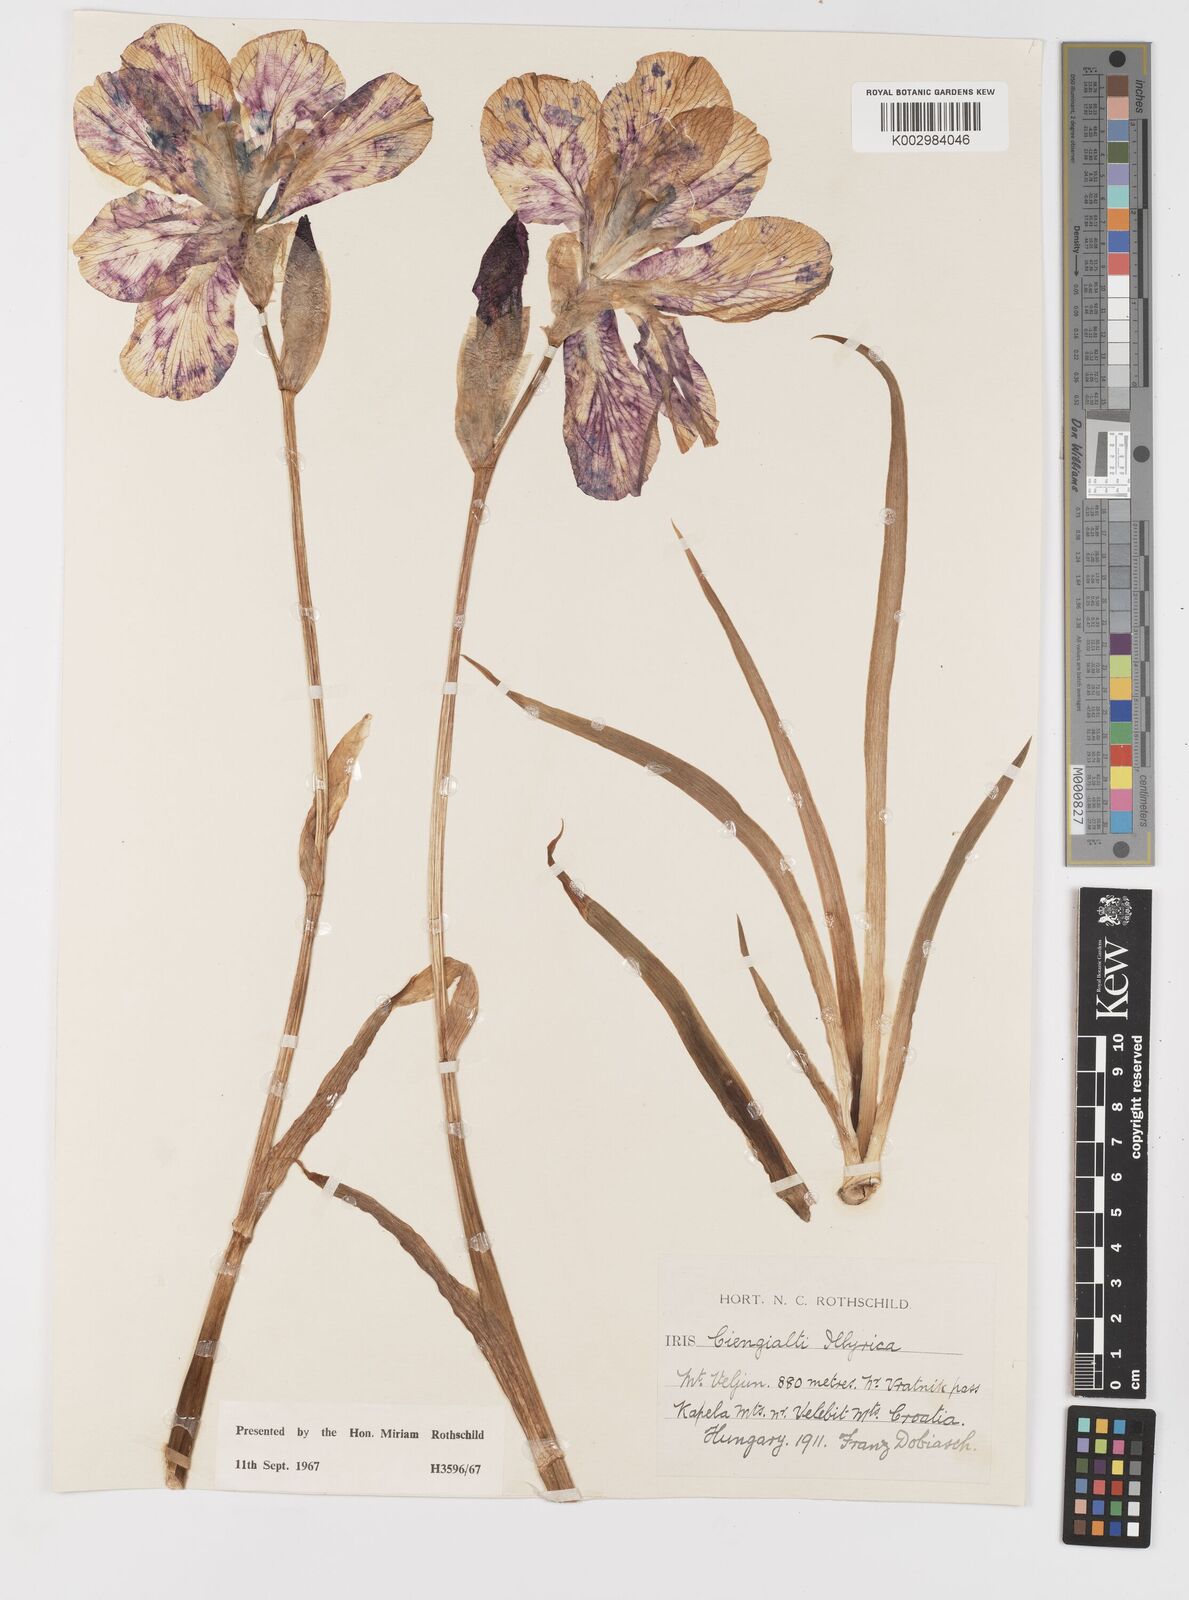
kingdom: Plantae
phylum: Tracheophyta
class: Liliopsida
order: Asparagales
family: Iridaceae
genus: Iris
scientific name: Iris pallida
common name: Sweet iris
